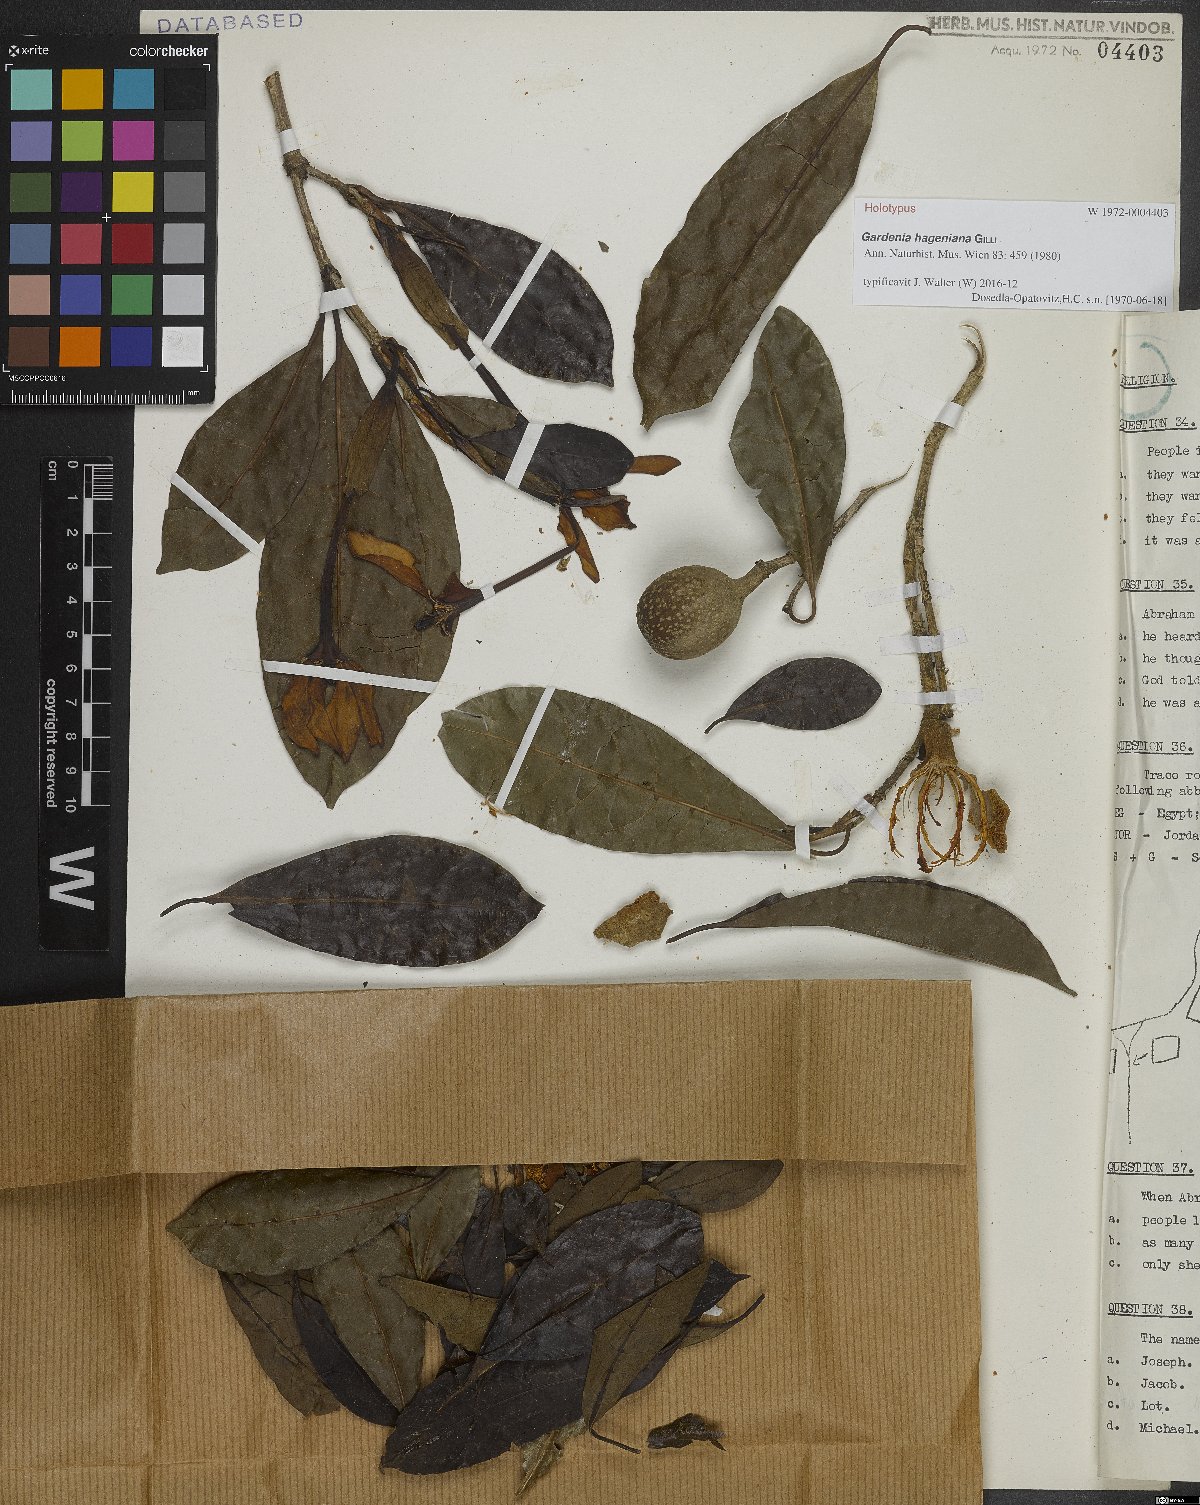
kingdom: Plantae
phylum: Tracheophyta
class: Magnoliopsida
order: Gentianales
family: Rubiaceae
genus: Gardenia
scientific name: Gardenia hageniana
